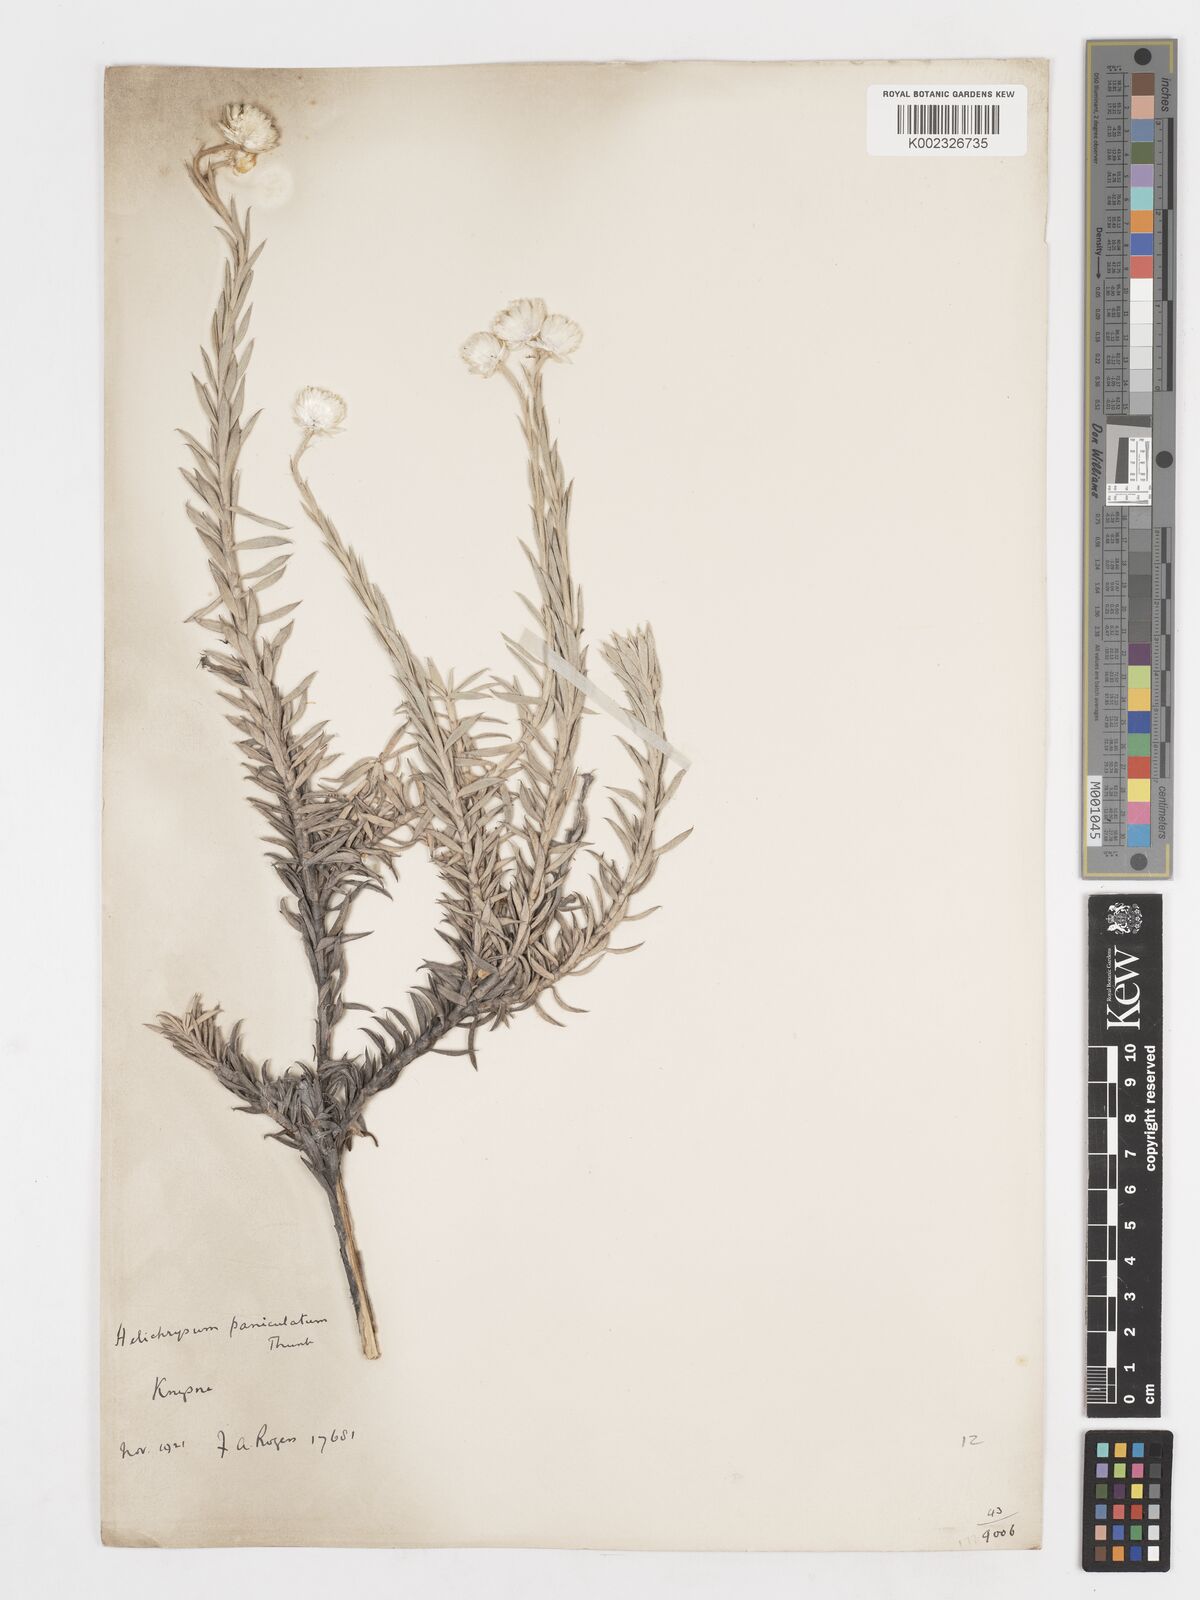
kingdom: Plantae
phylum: Tracheophyta
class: Magnoliopsida
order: Asterales
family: Asteraceae
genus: Achyranthemum
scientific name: Achyranthemum paniculatum
